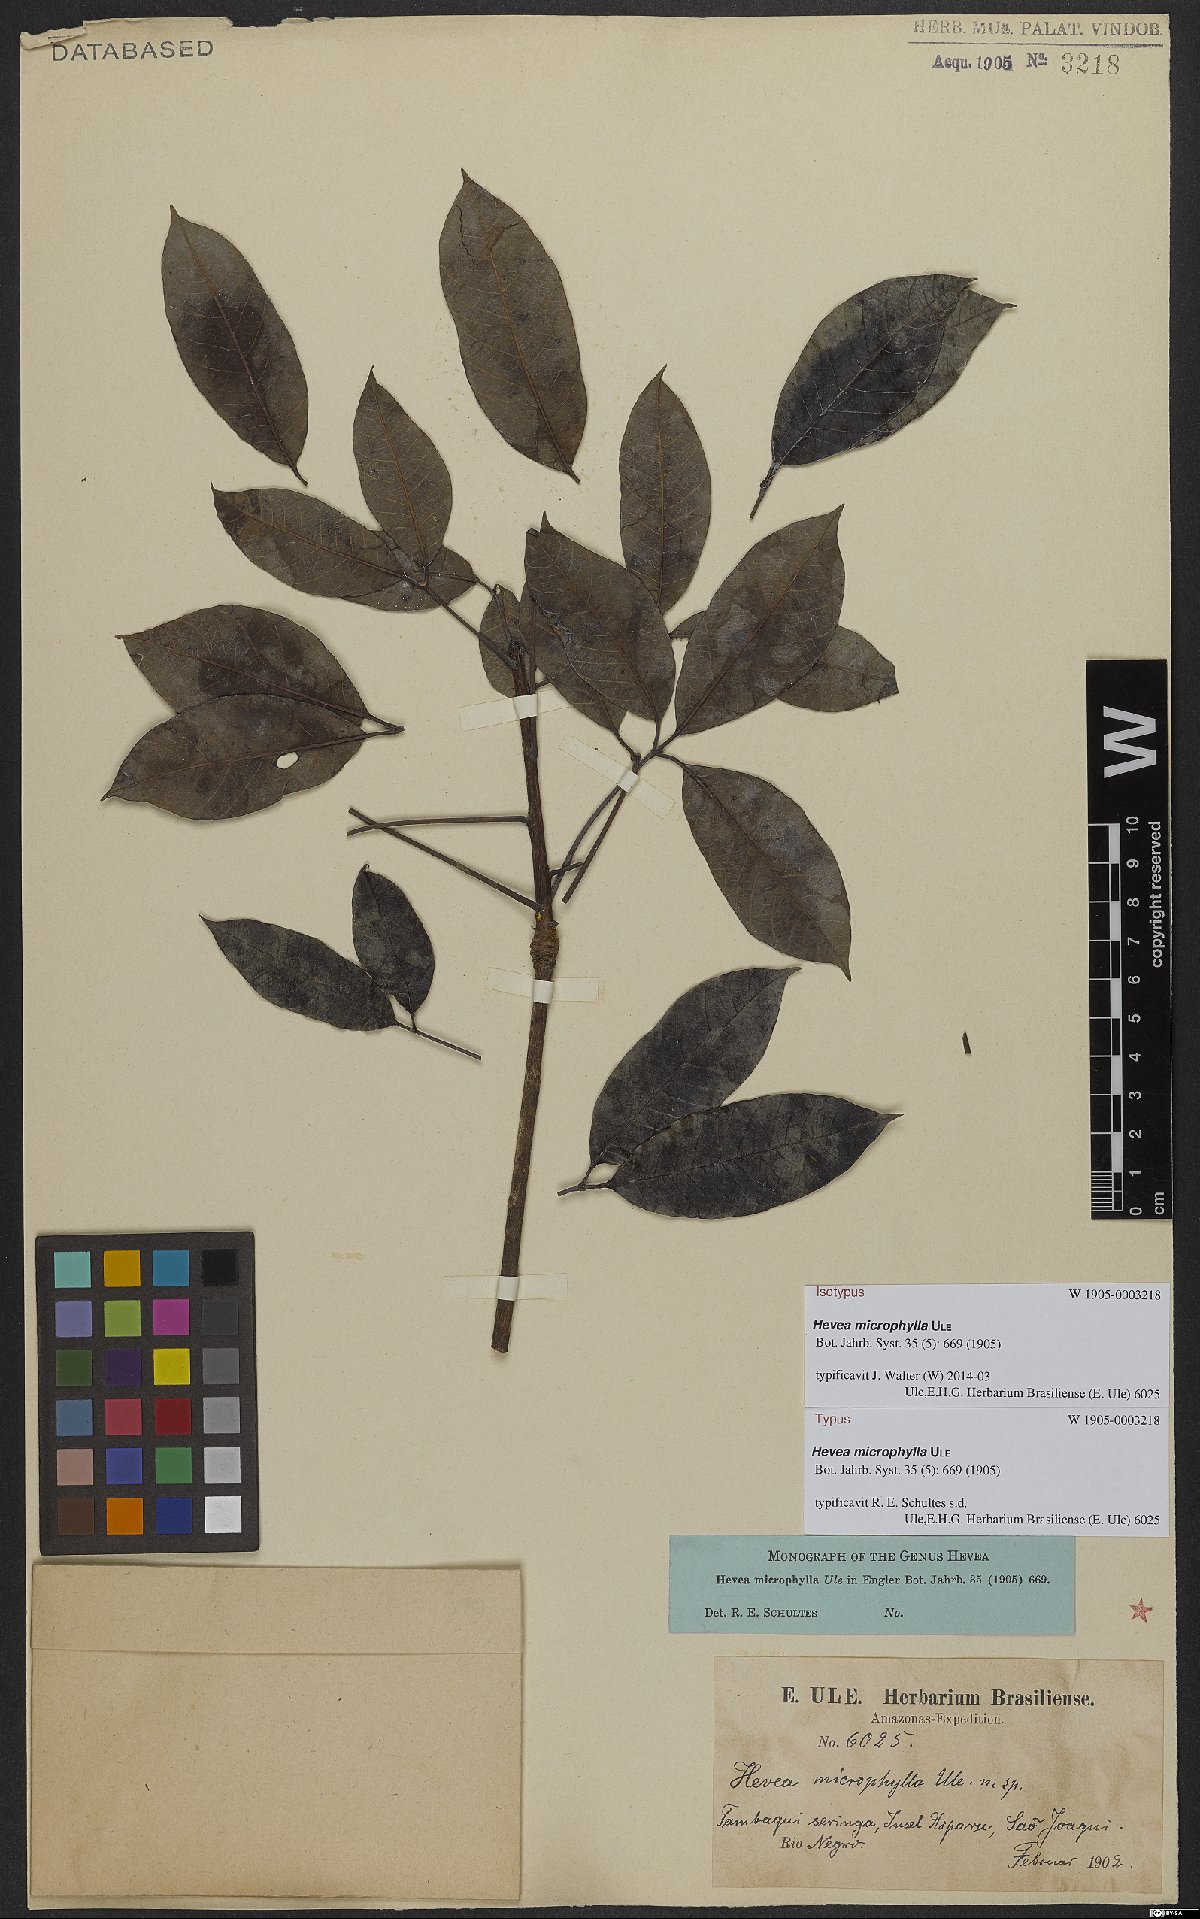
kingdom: Plantae
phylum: Tracheophyta
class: Magnoliopsida
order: Malpighiales
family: Euphorbiaceae
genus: Hevea
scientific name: Hevea microphylla
